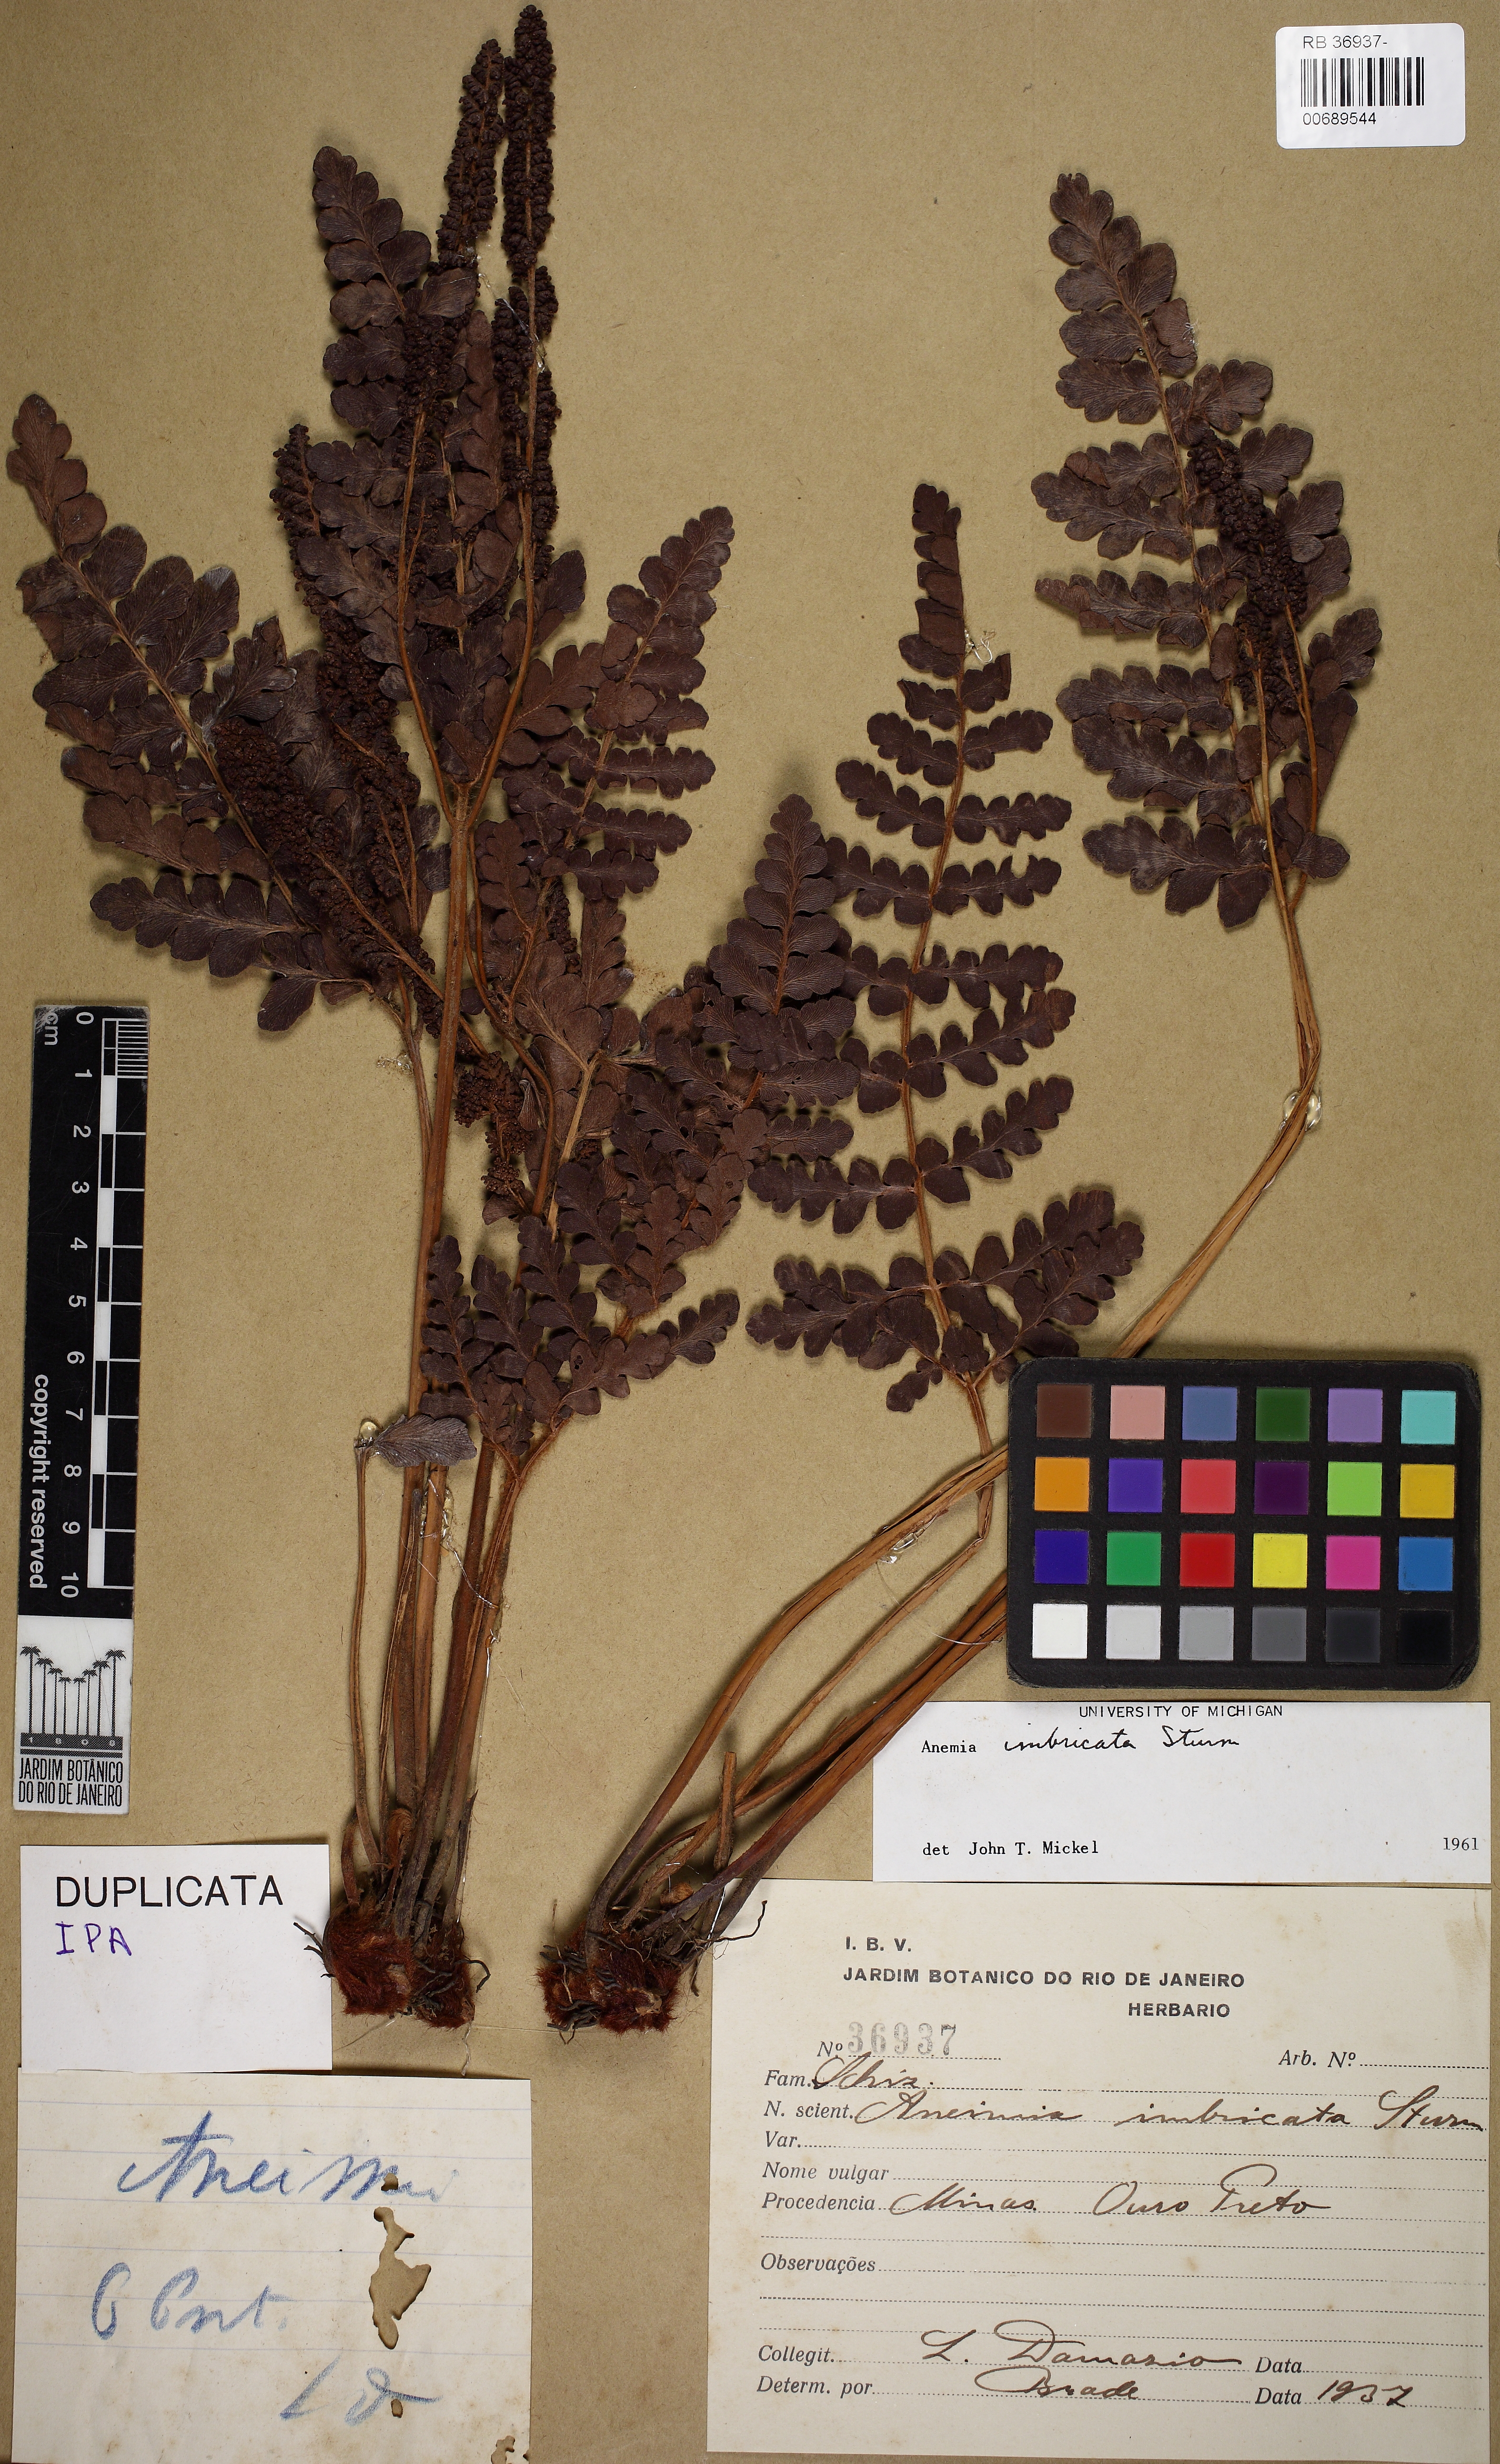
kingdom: Plantae
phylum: Tracheophyta
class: Polypodiopsida
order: Schizaeales
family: Anemiaceae
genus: Anemia
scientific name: Anemia imbricata
